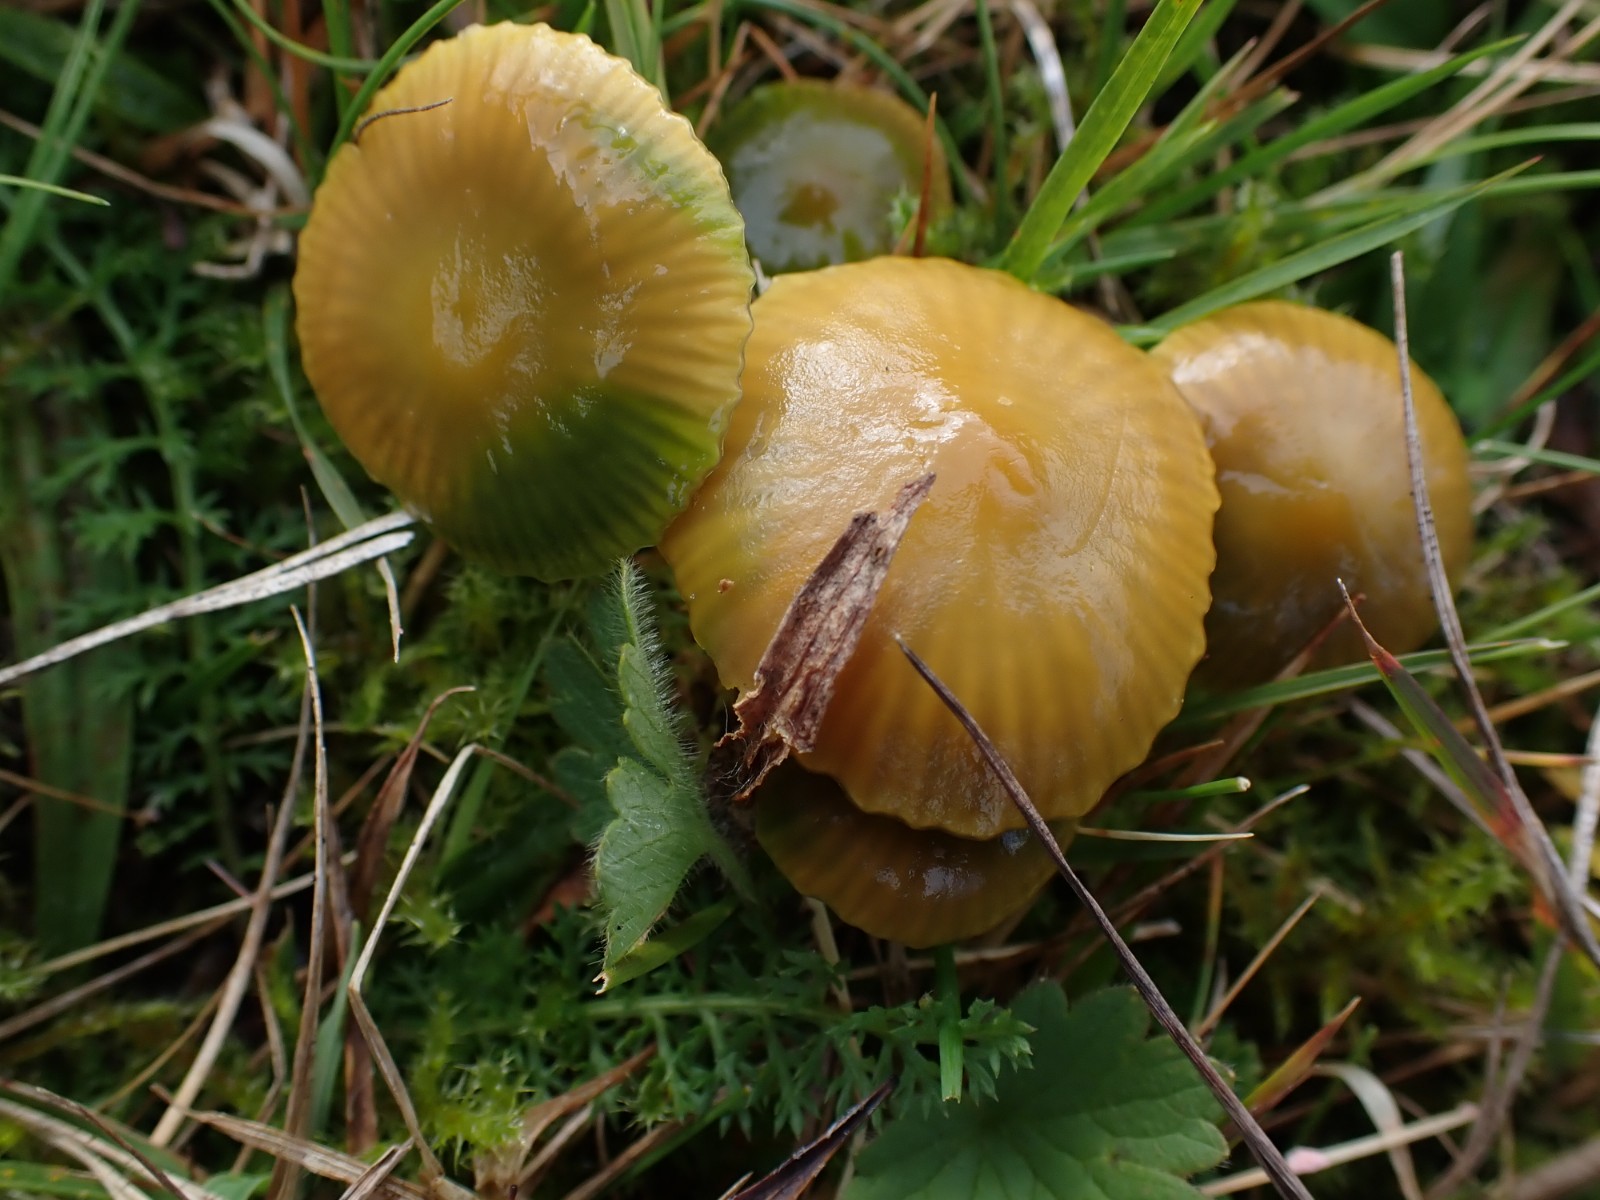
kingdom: Fungi
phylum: Basidiomycota
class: Agaricomycetes
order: Agaricales
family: Hygrophoraceae
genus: Gliophorus
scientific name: Gliophorus psittacinus
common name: papegøje-vokshat
